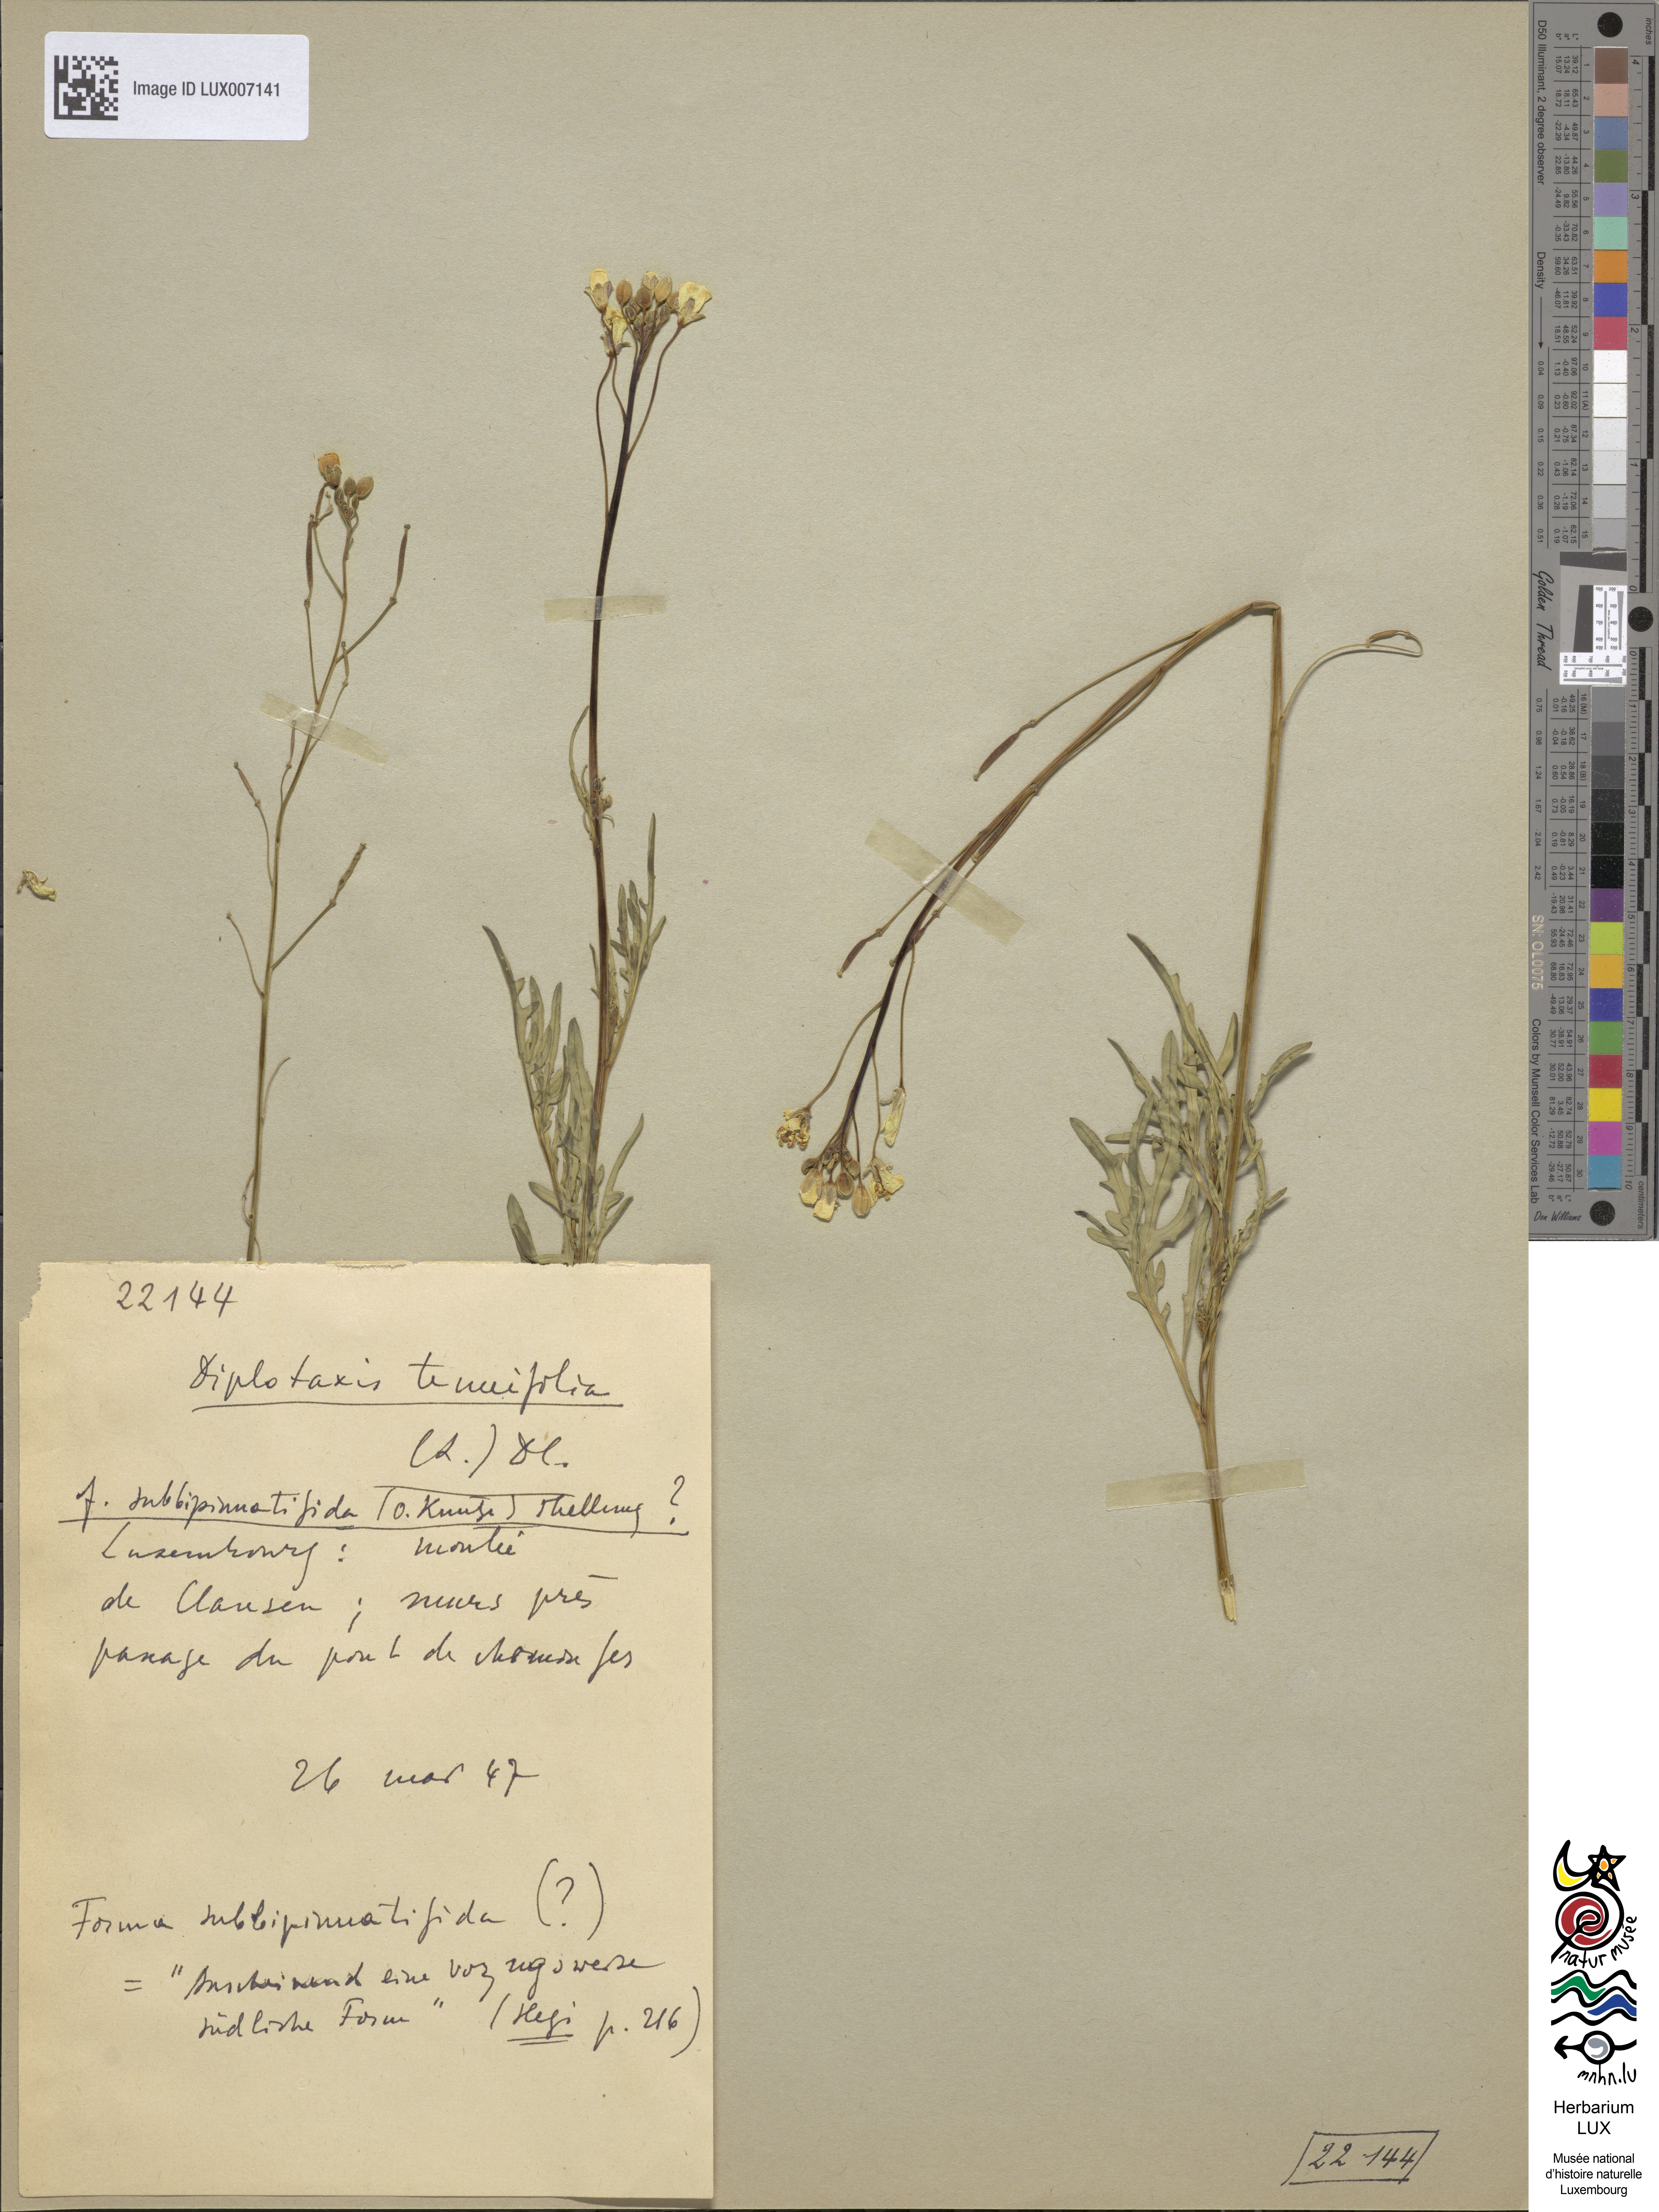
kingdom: Plantae
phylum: Tracheophyta
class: Magnoliopsida
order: Brassicales
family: Brassicaceae
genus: Diplotaxis
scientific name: Diplotaxis tenuifolia
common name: Perennial wall-rocket
